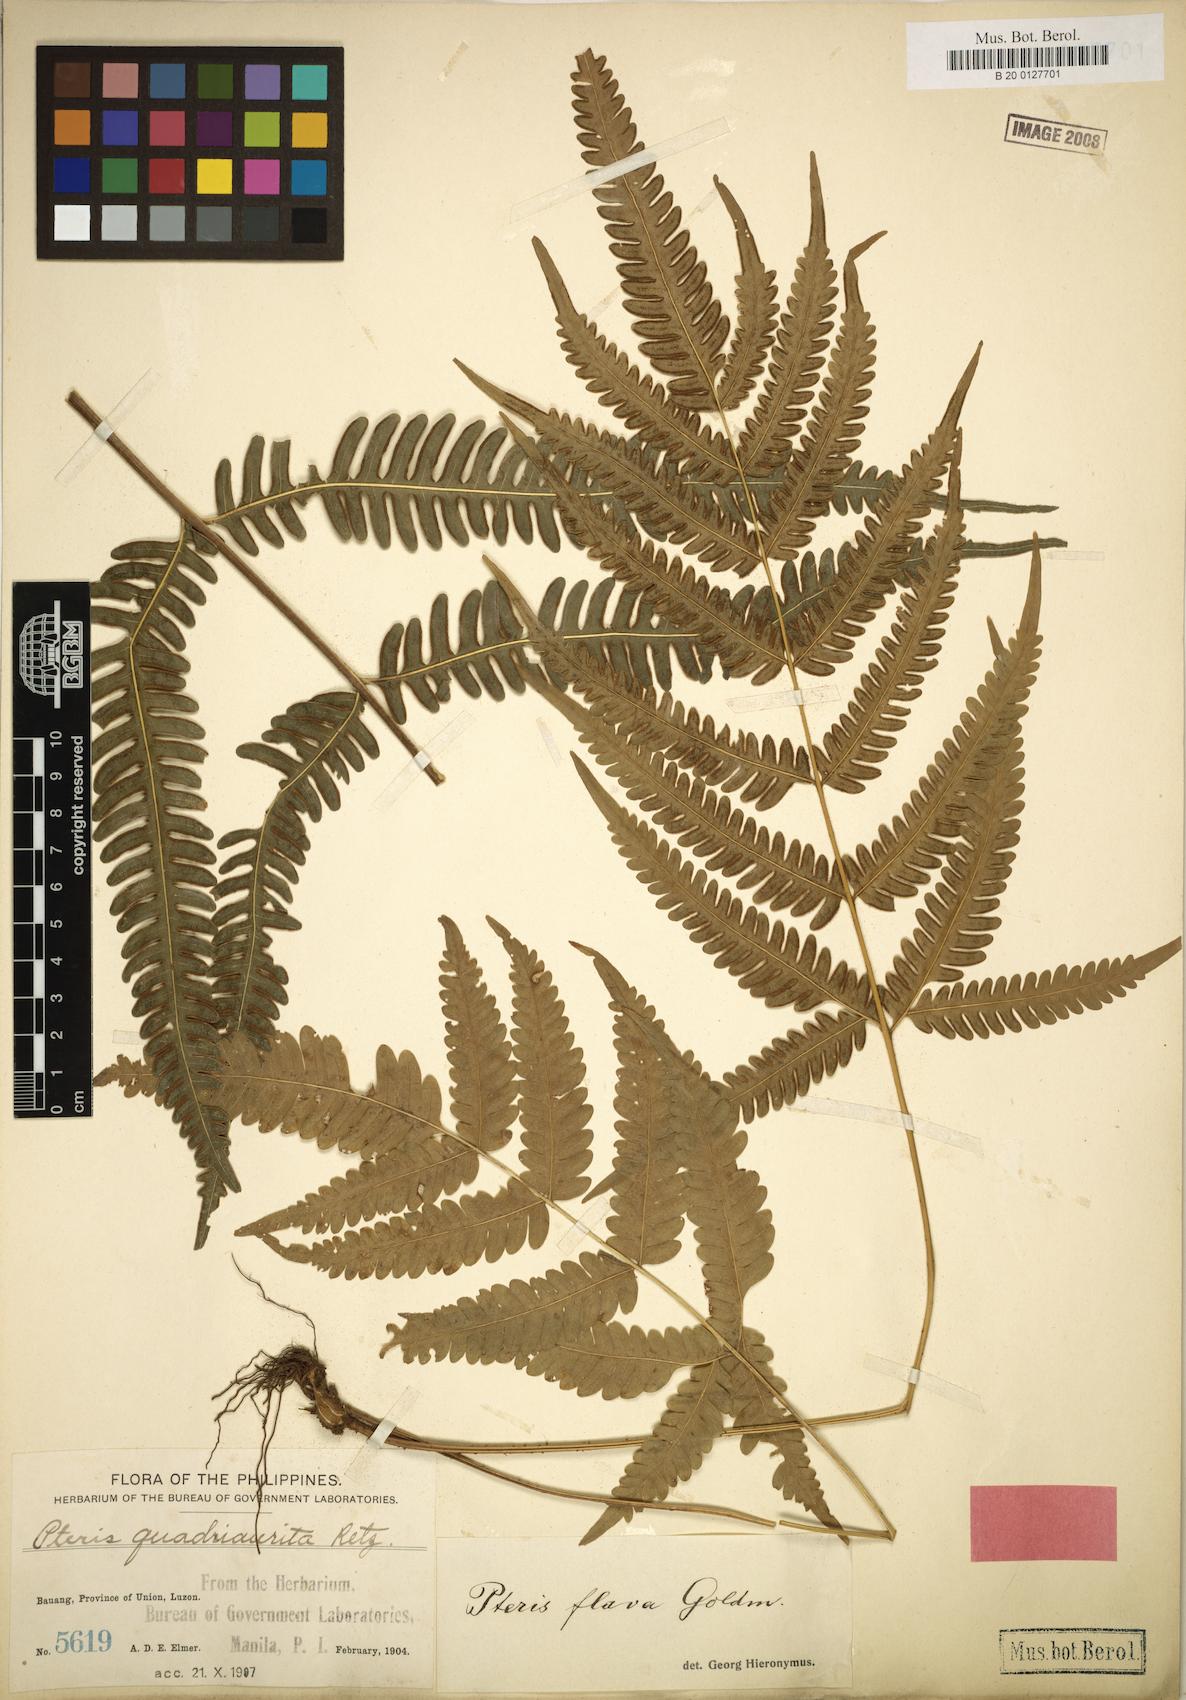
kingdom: Plantae
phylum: Tracheophyta
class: Polypodiopsida
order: Polypodiales
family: Pteridaceae
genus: Pteris
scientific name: Pteris glaucovirens
